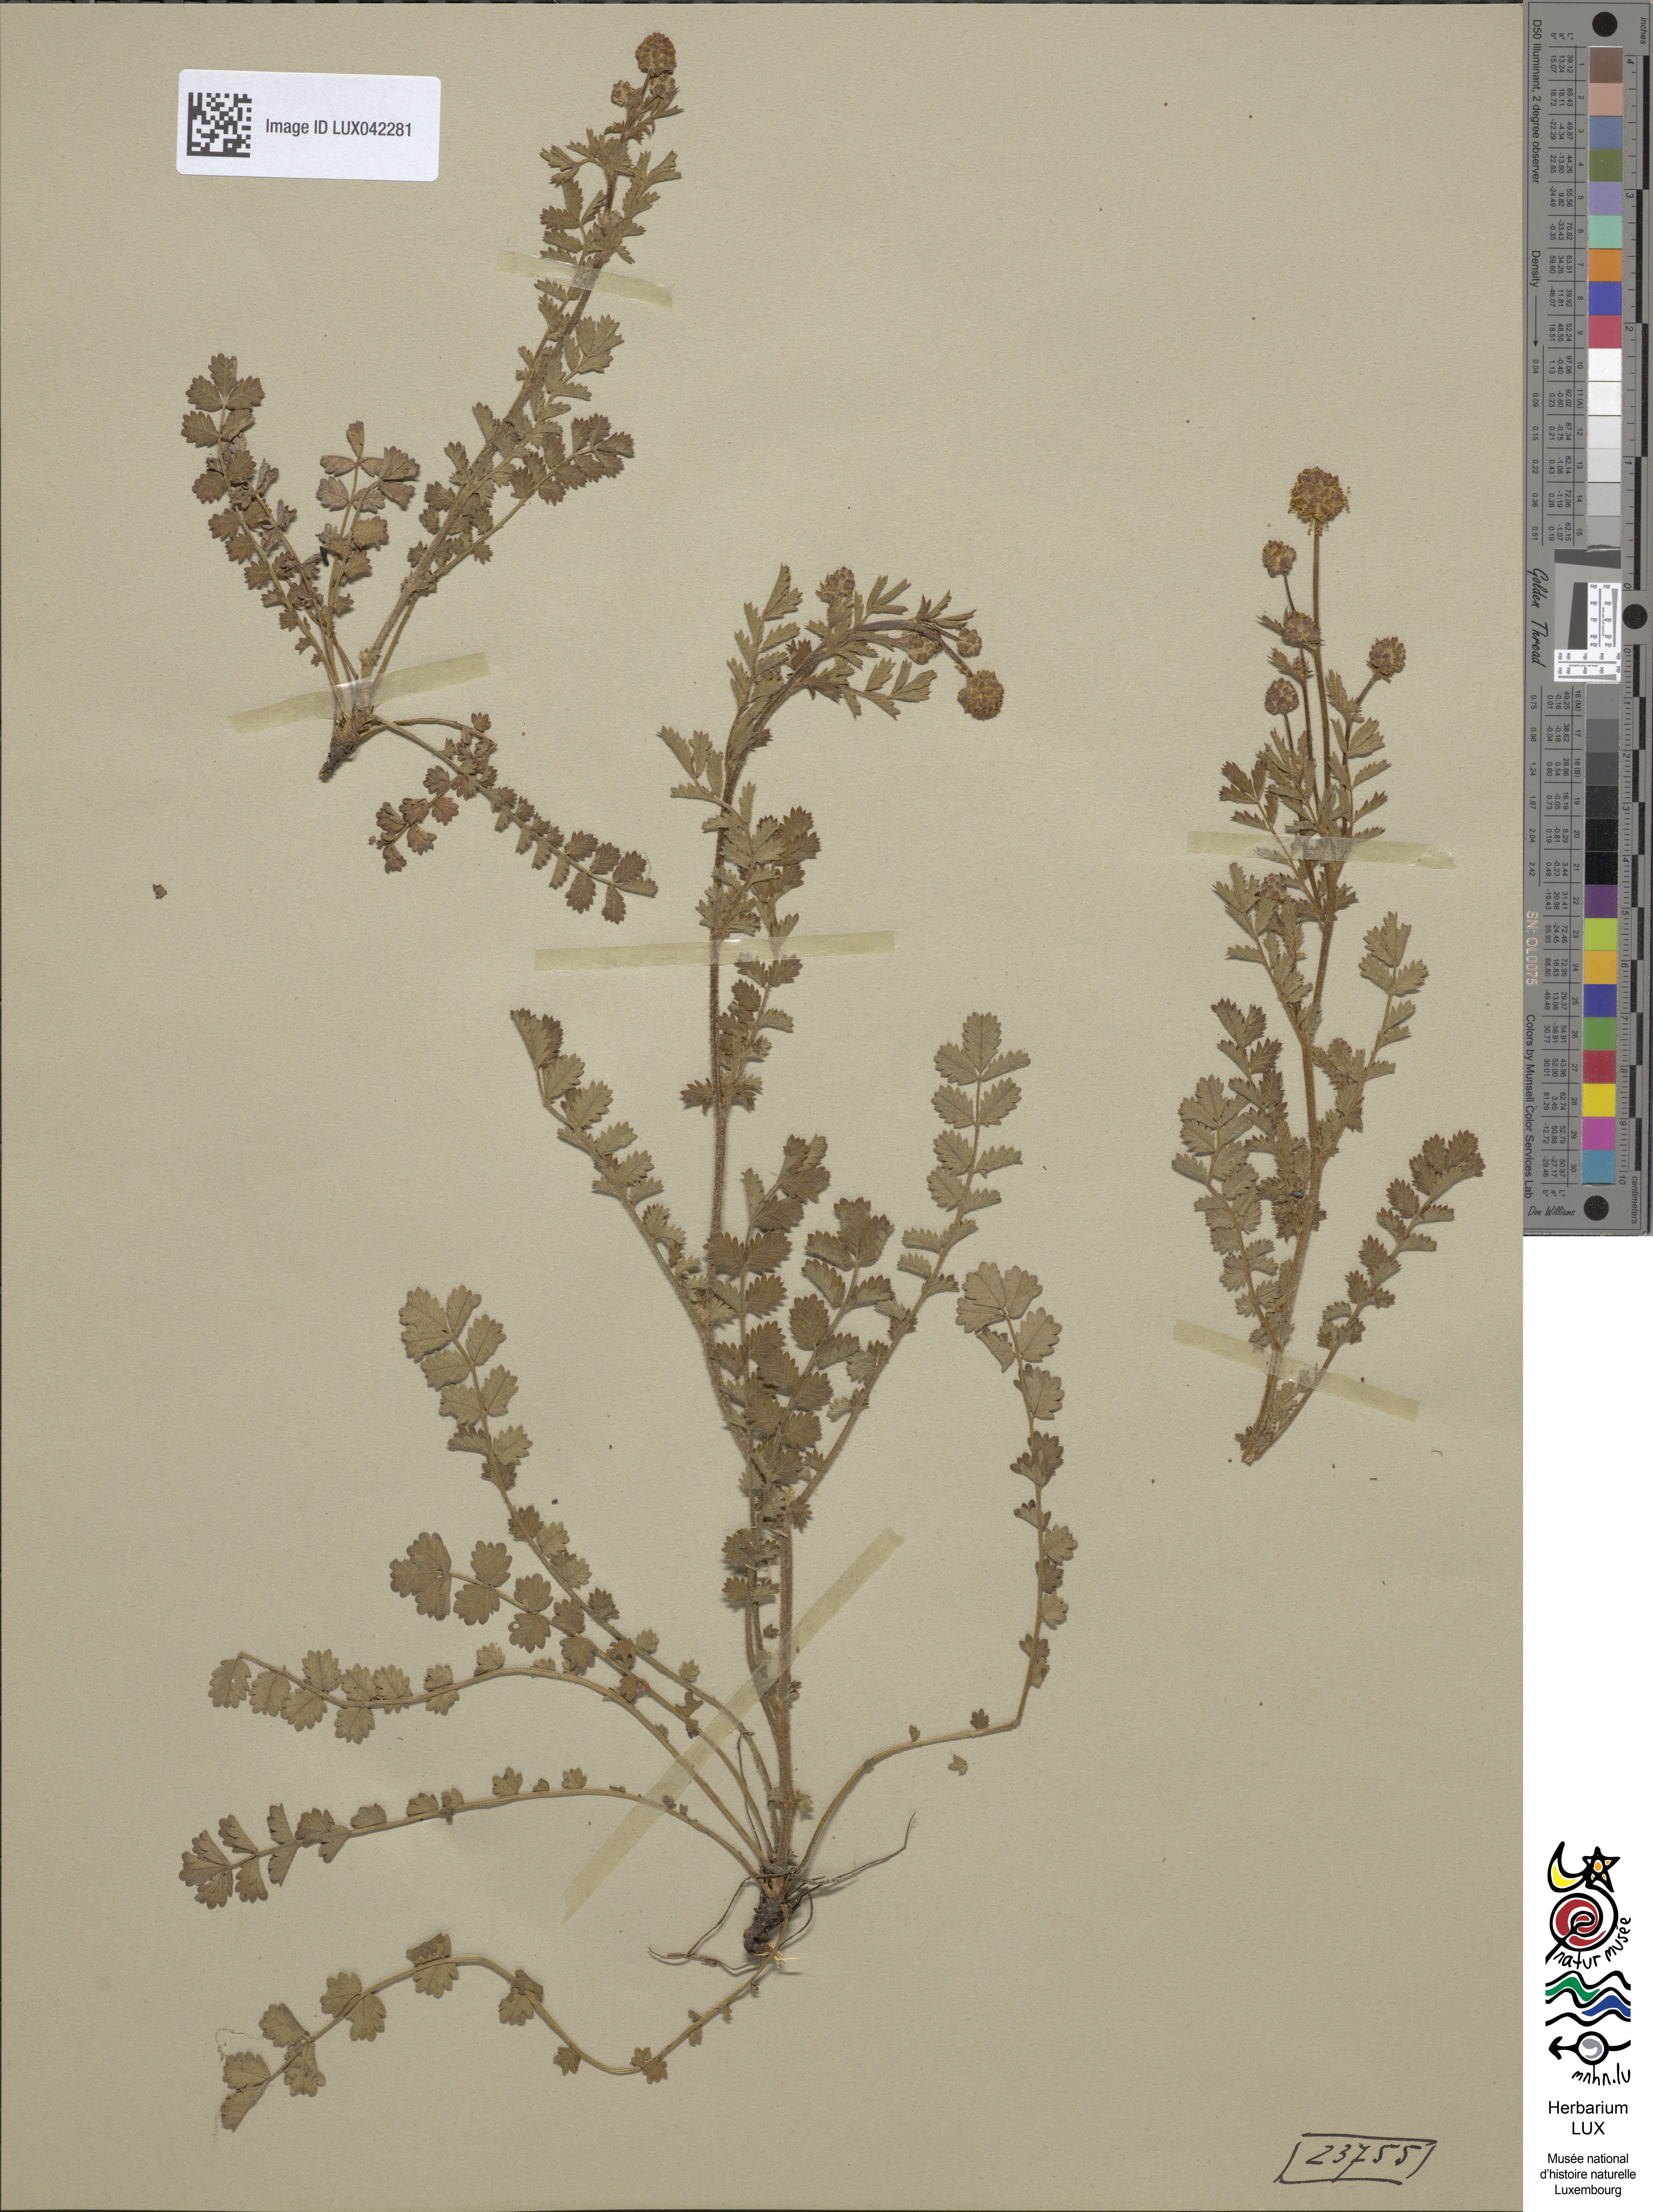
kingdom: Plantae
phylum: Tracheophyta
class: Magnoliopsida
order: Rosales
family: Rosaceae
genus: Poterium
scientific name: Poterium verrucosum
